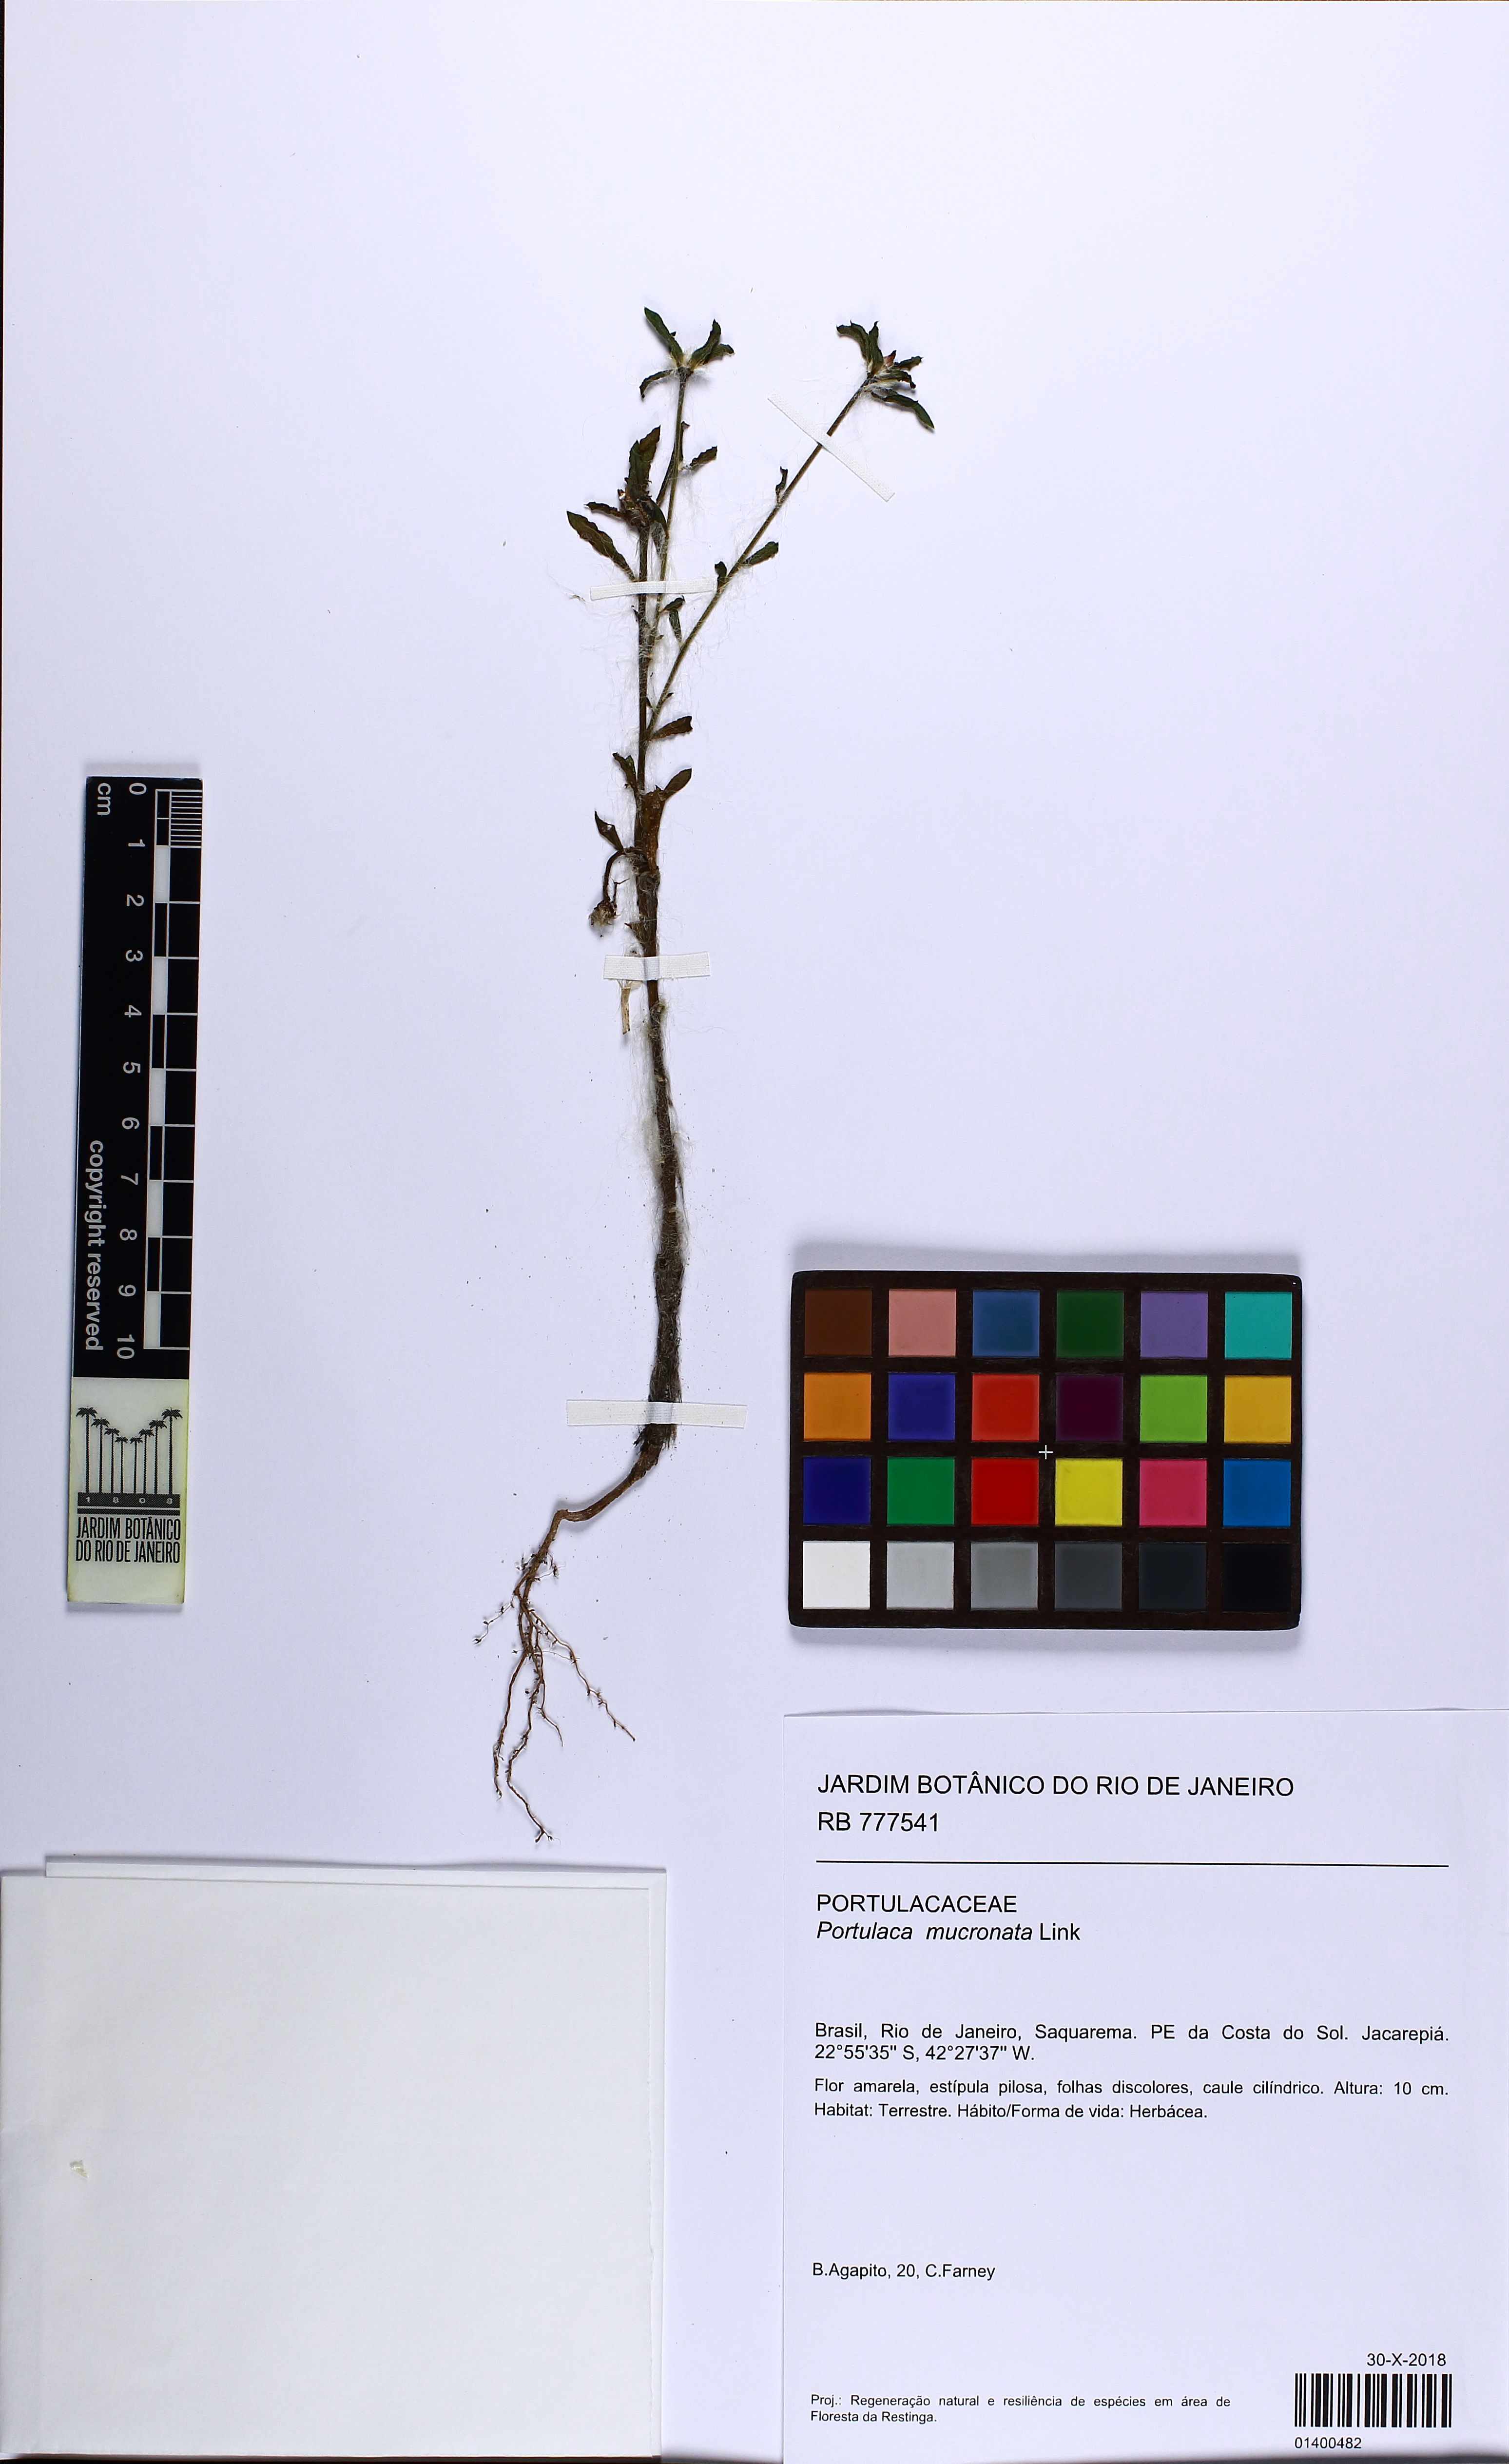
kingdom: Plantae
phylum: Tracheophyta
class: Magnoliopsida
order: Caryophyllales
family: Portulacaceae
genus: Portulaca
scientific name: Portulaca mucronata
